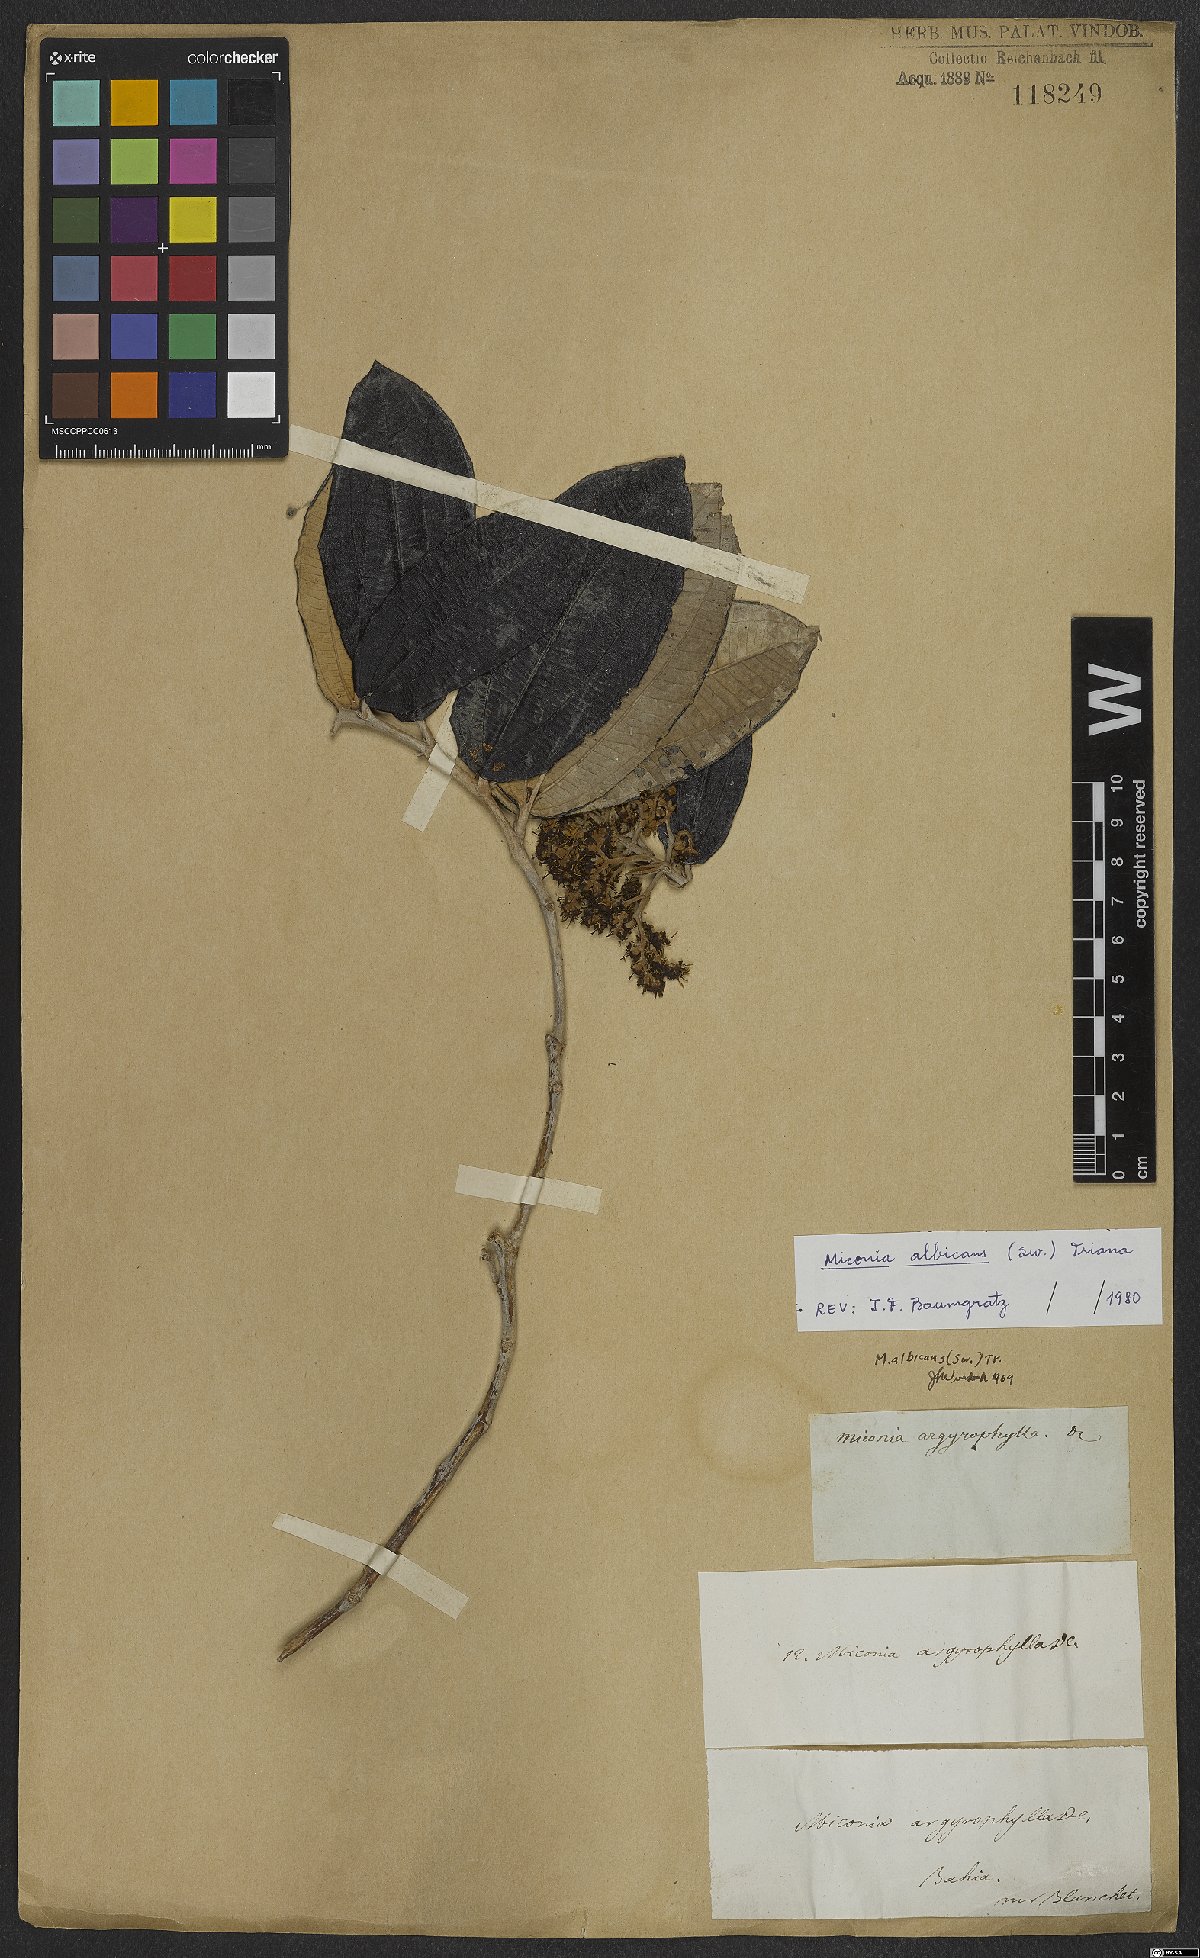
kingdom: Plantae
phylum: Tracheophyta
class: Magnoliopsida
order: Myrtales
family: Melastomataceae
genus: Miconia
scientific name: Miconia albicans
